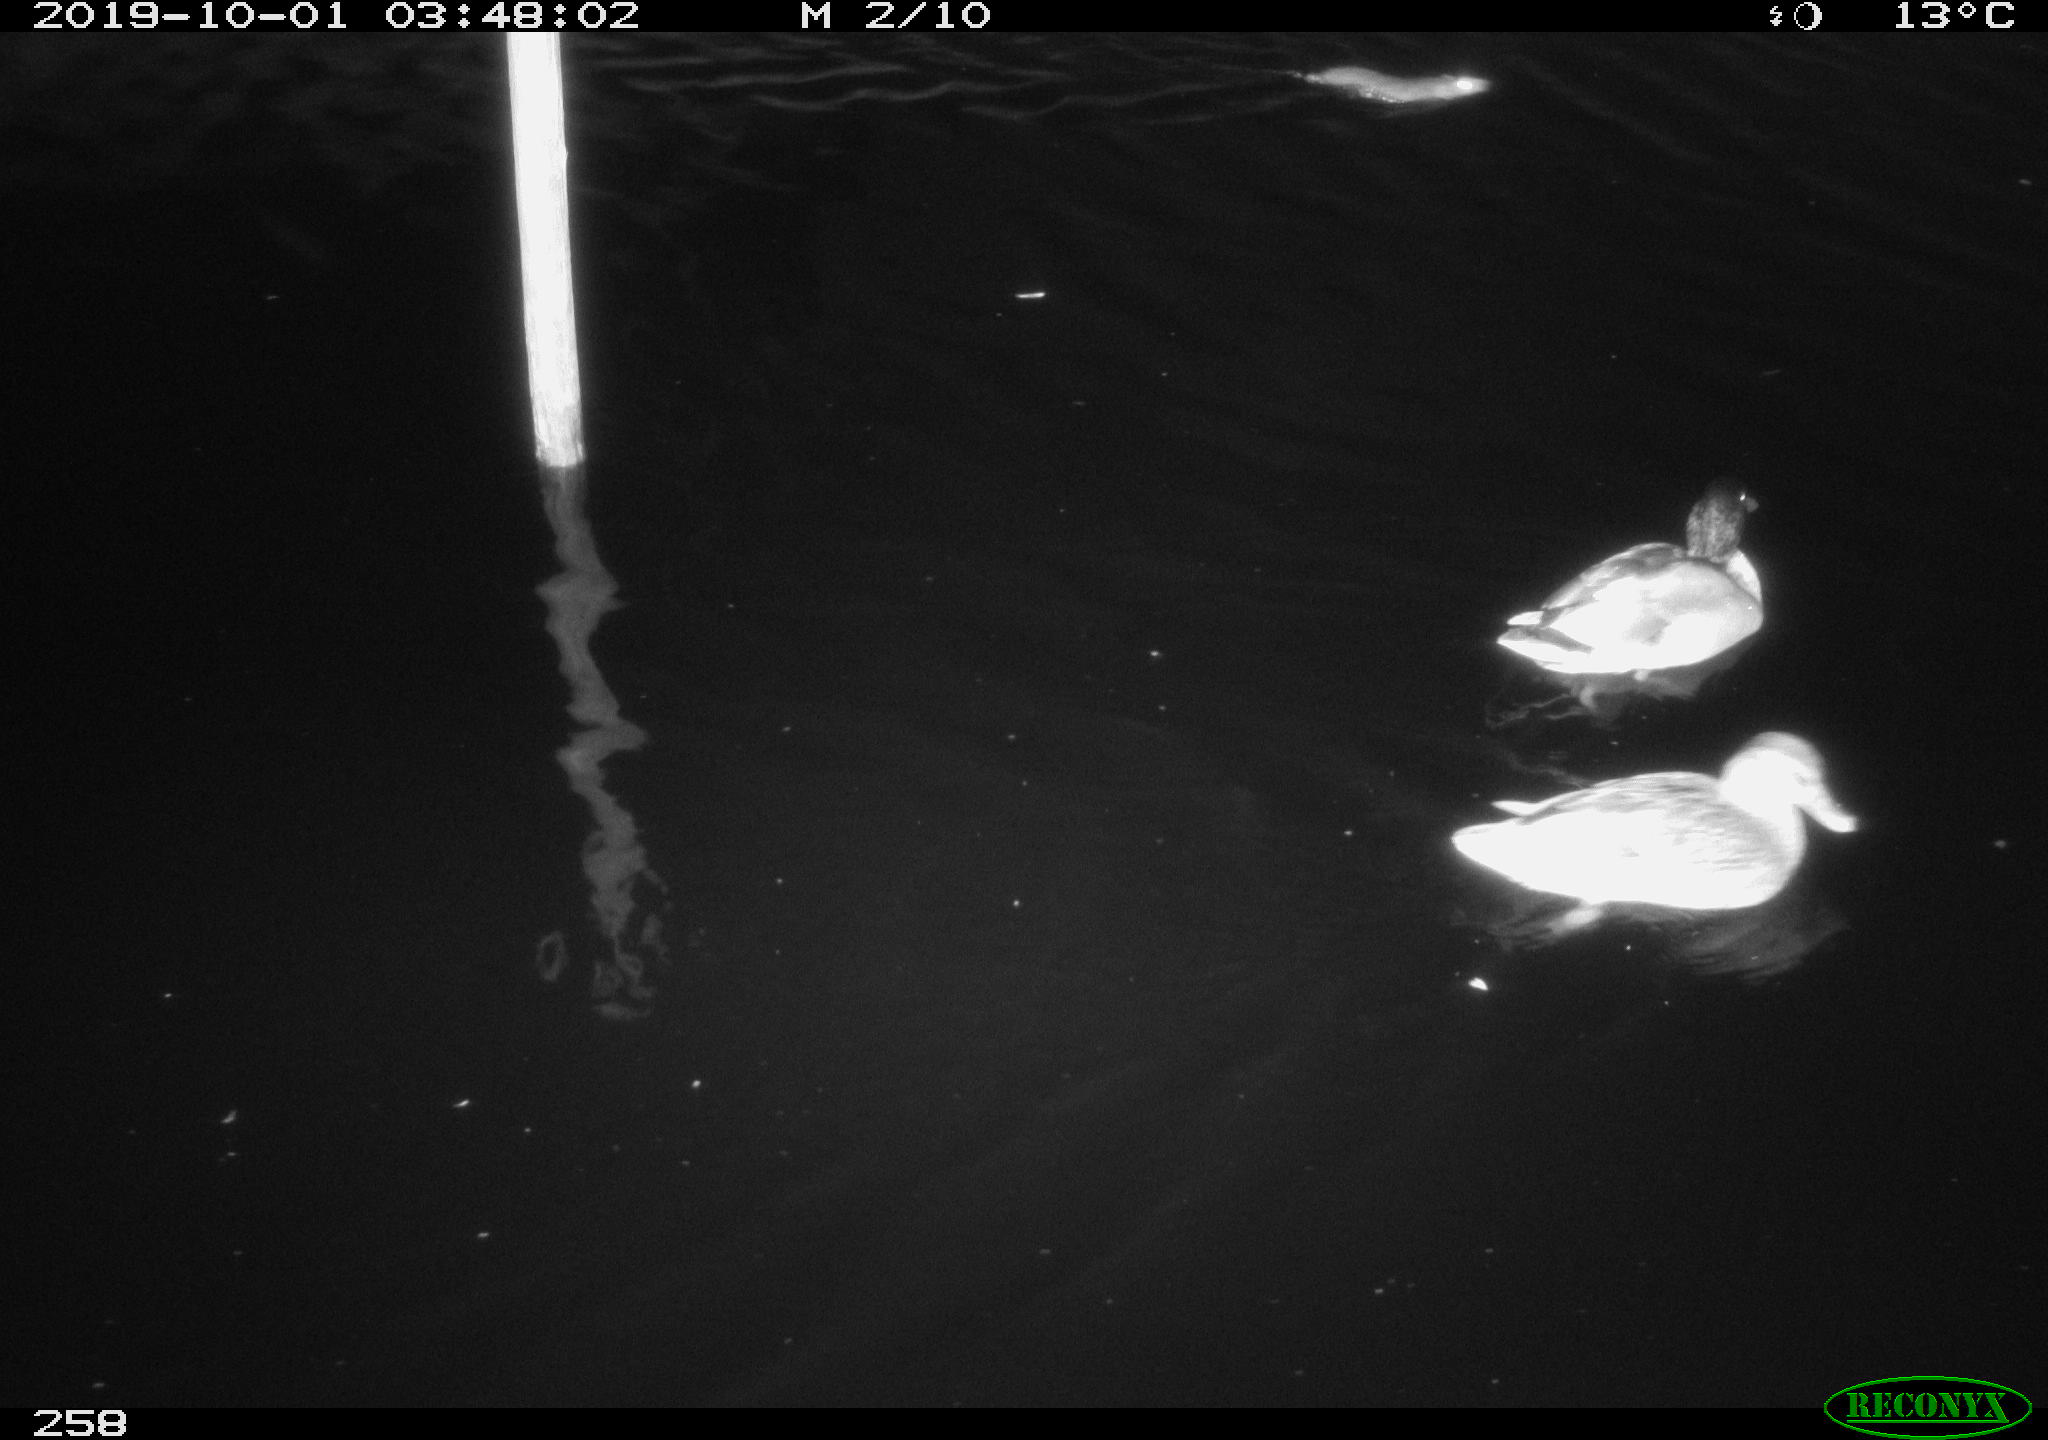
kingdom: Animalia
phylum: Chordata
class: Mammalia
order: Rodentia
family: Cricetidae
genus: Ondatra
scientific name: Ondatra zibethicus
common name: Muskrat
